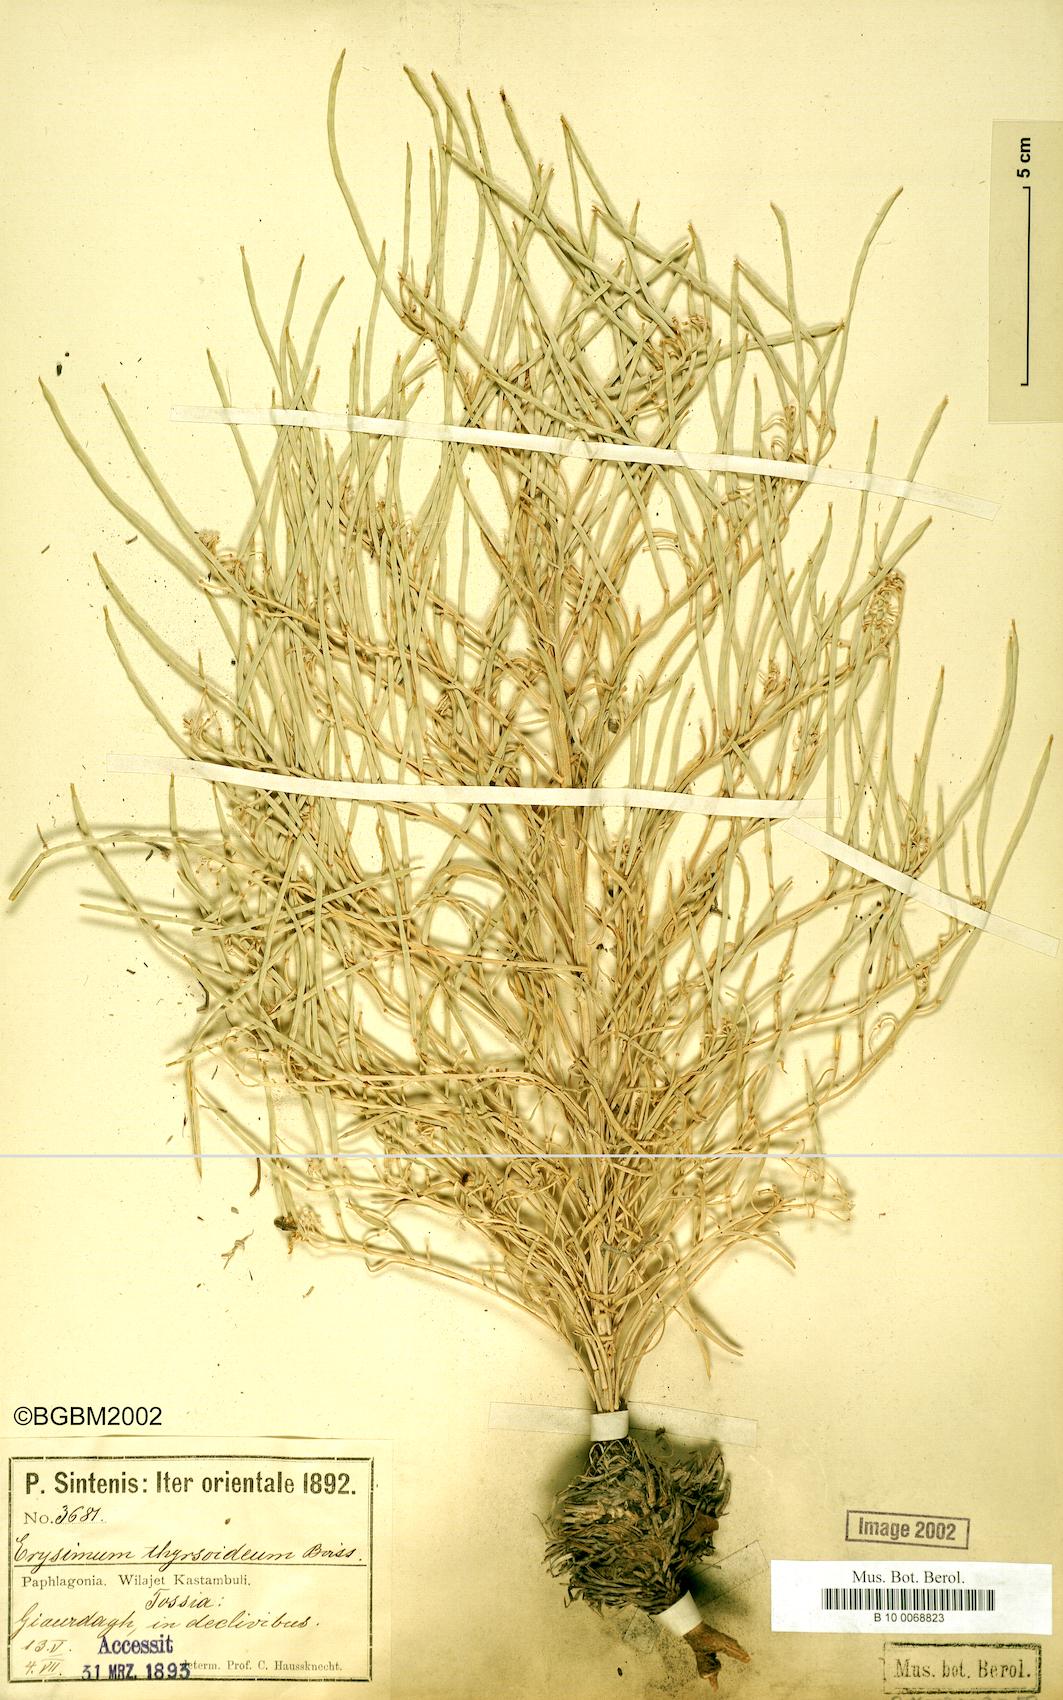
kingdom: Plantae
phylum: Tracheophyta
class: Magnoliopsida
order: Brassicales
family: Brassicaceae
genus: Erysimum
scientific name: Erysimum pycnophyllum
